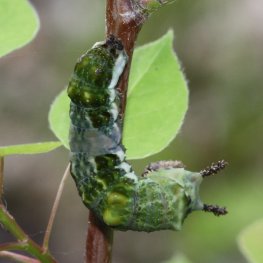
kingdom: Animalia
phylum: Arthropoda
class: Insecta
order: Lepidoptera
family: Nymphalidae
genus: Limenitis
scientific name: Limenitis arthemis
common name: Red-spotted Admiral
